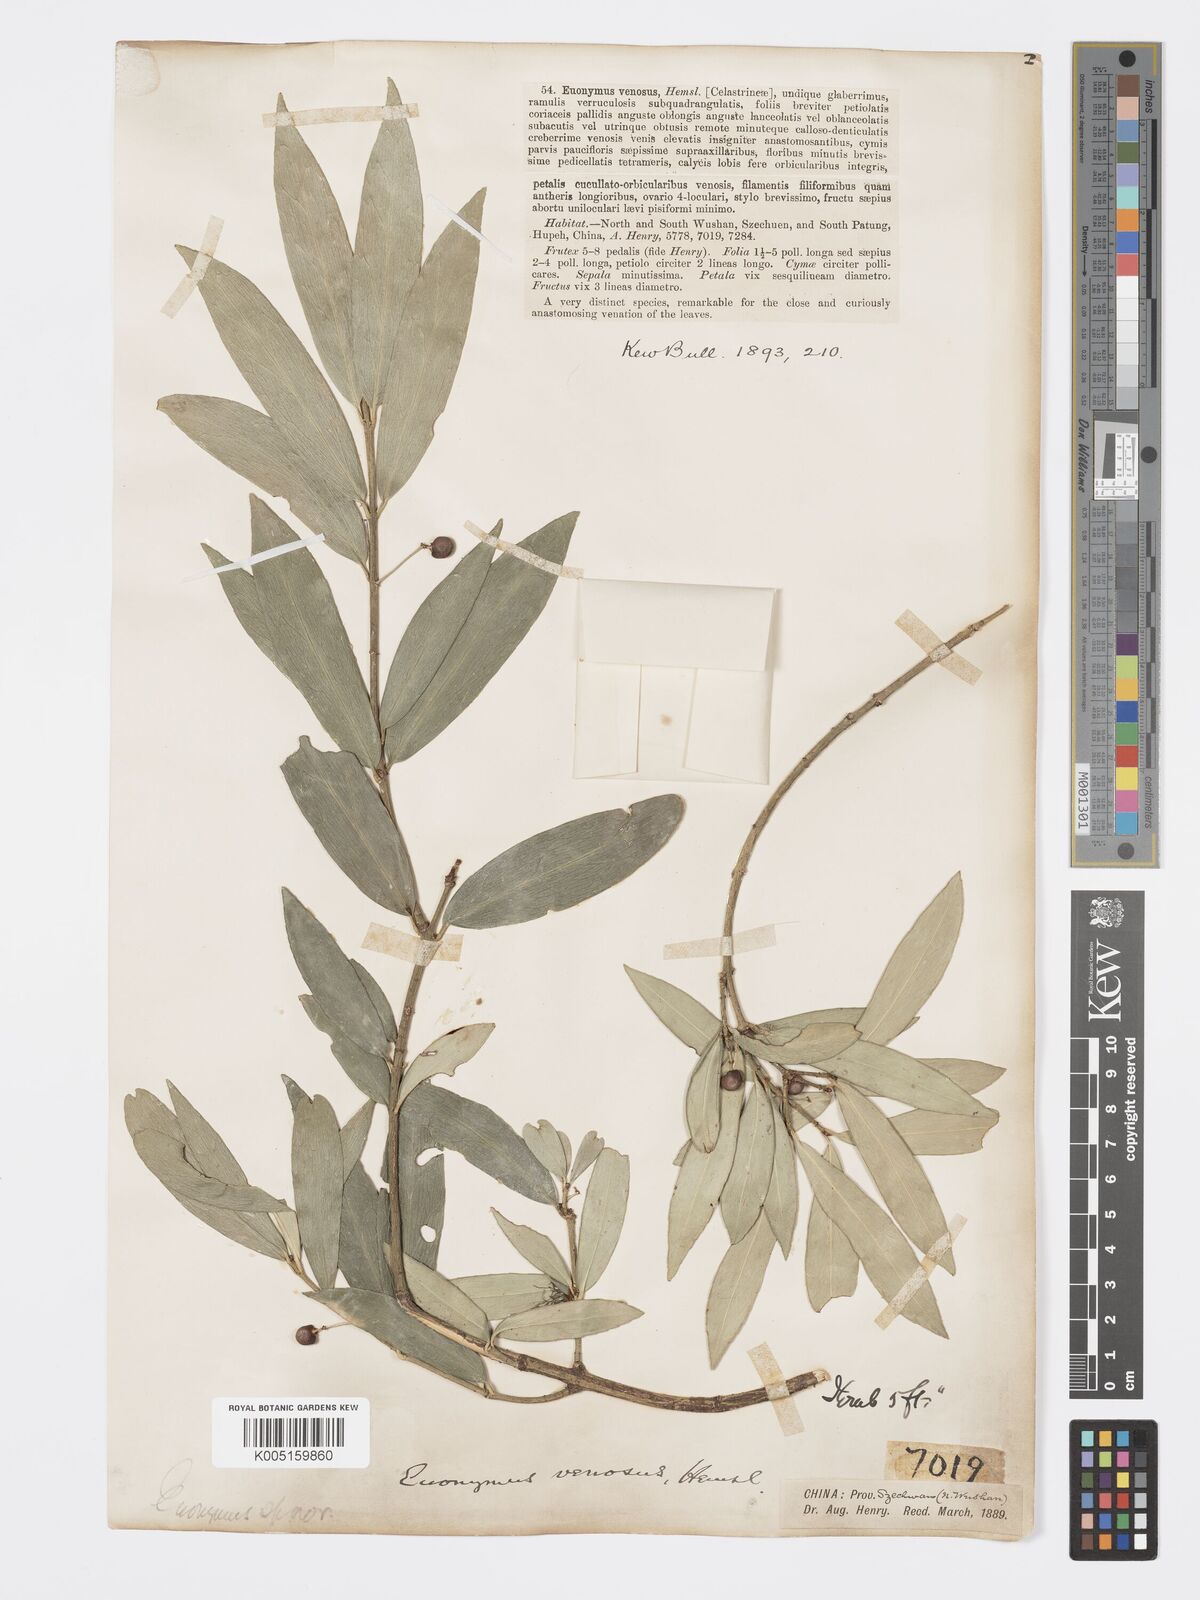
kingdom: Plantae
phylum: Tracheophyta
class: Magnoliopsida
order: Celastrales
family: Celastraceae
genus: Euonymus
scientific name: Euonymus venosus
